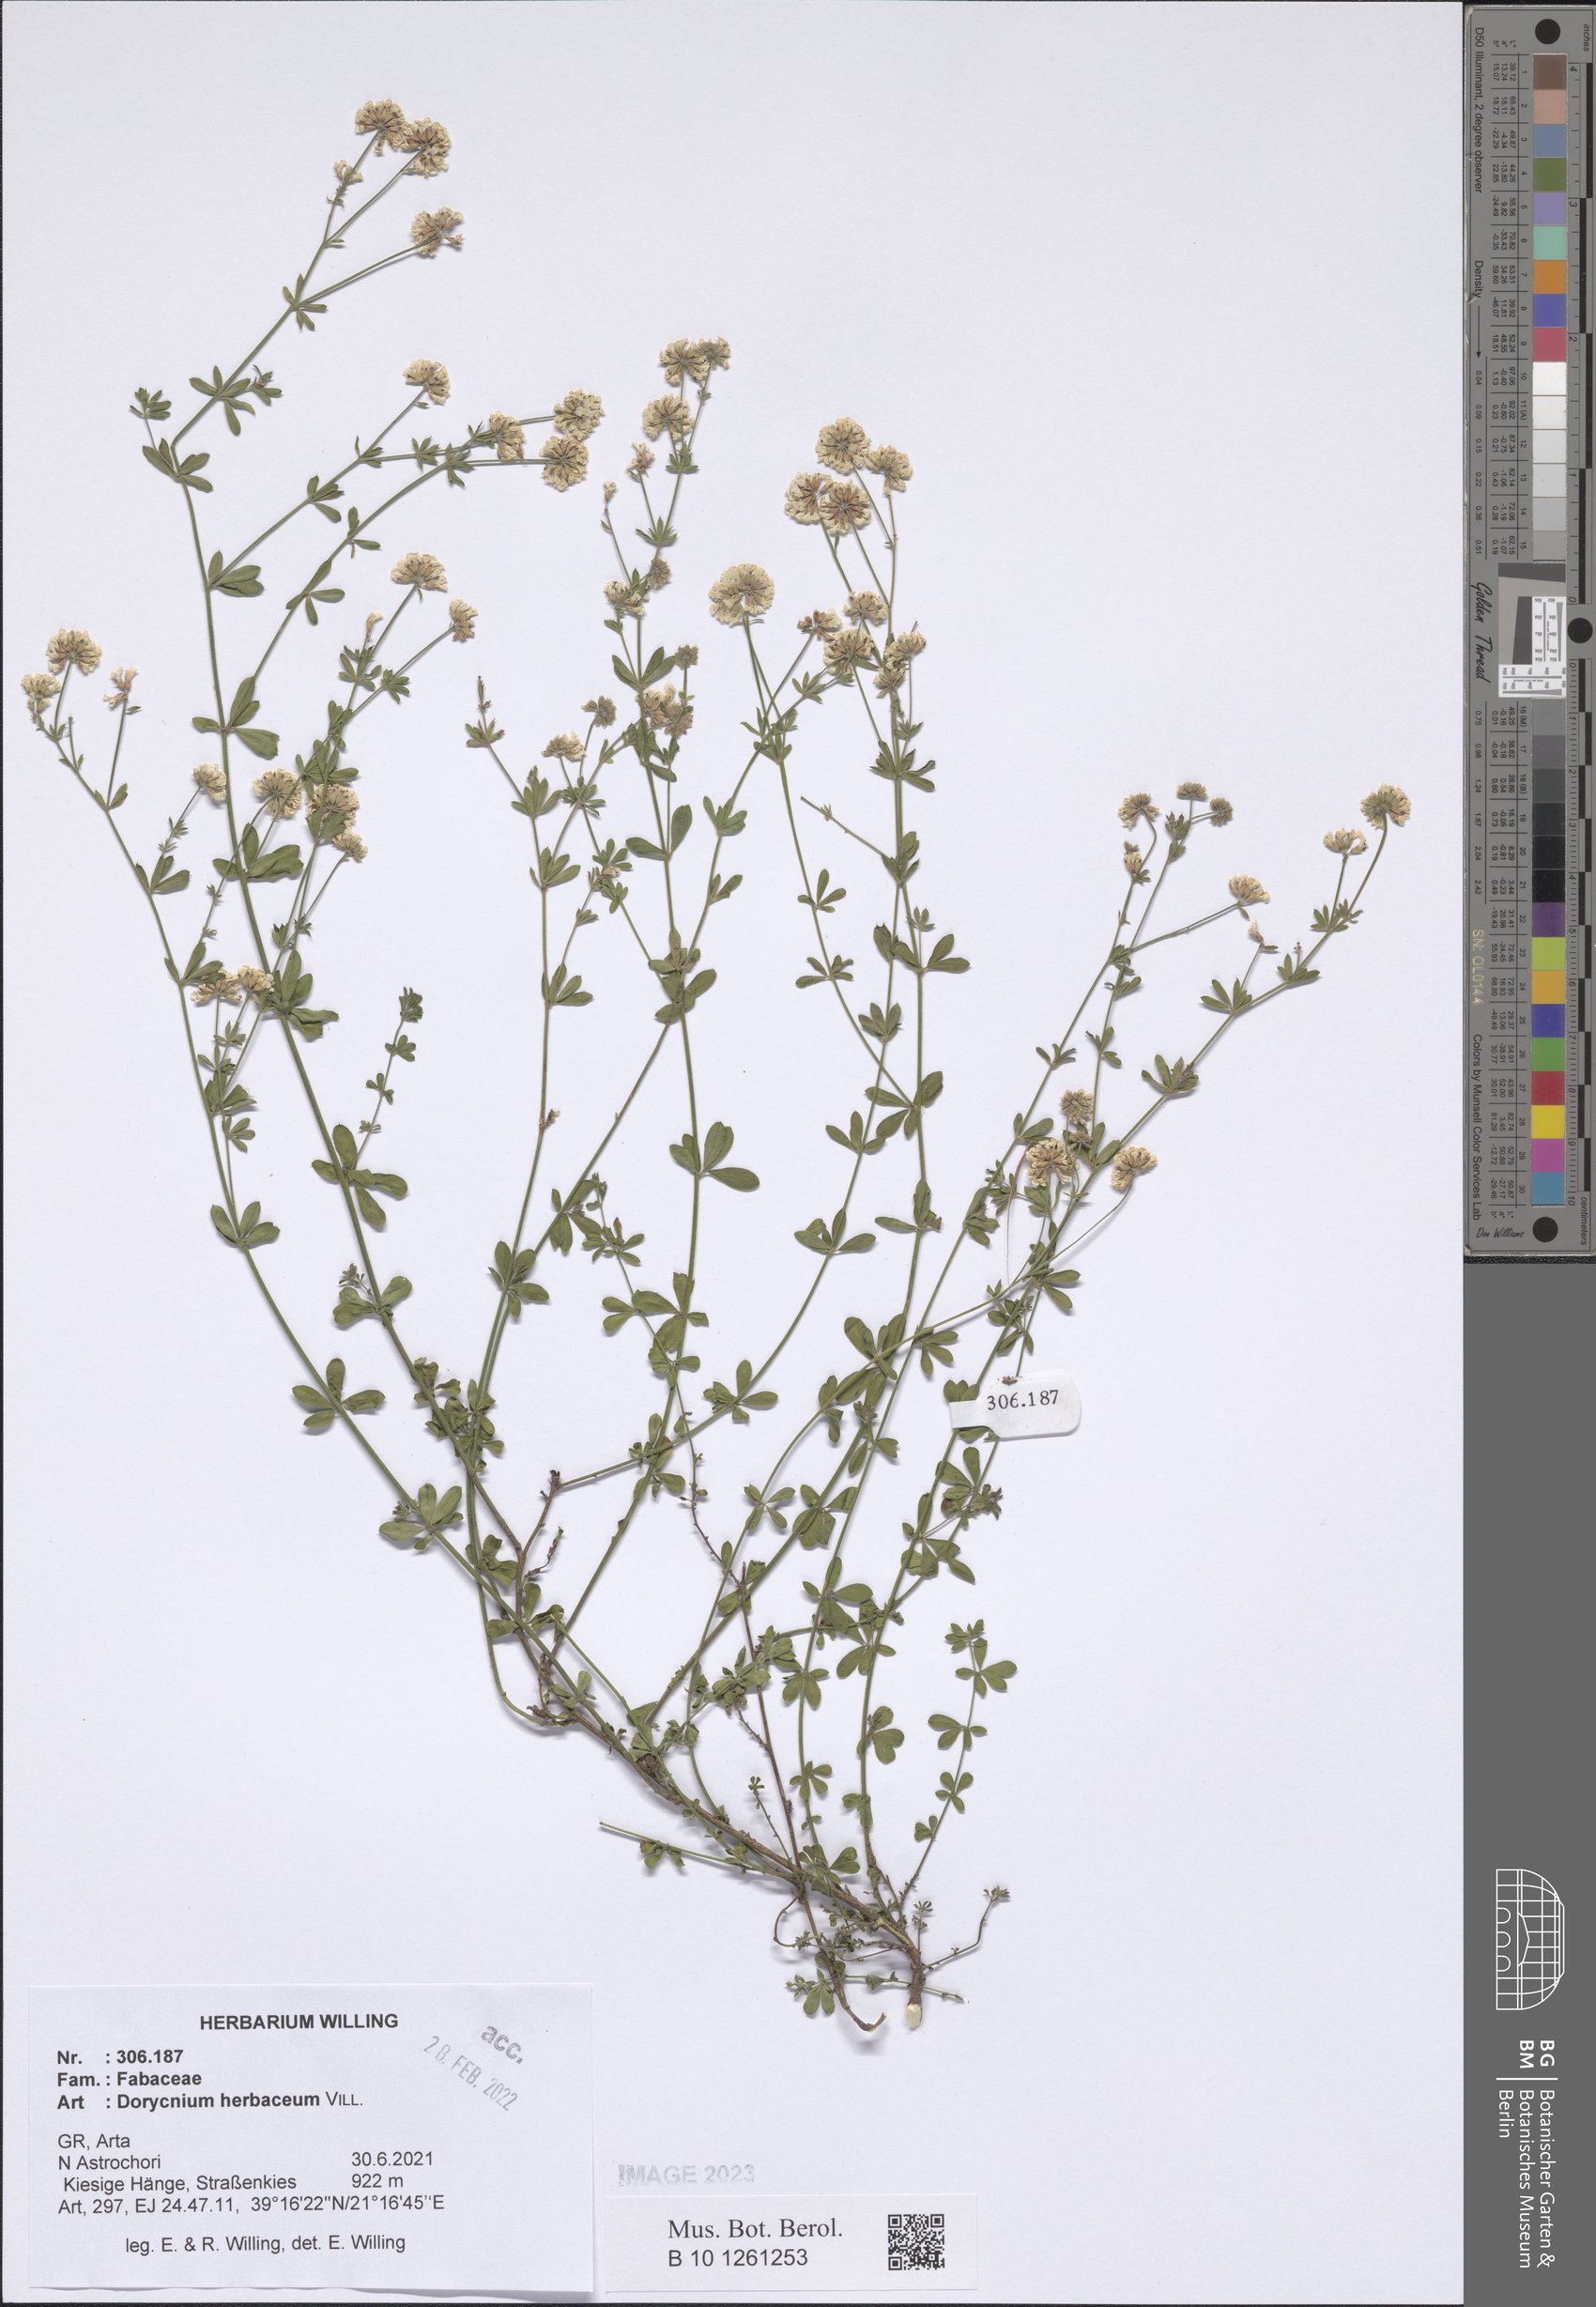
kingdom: Plantae
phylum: Tracheophyta
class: Magnoliopsida
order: Fabales
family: Fabaceae
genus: Lotus
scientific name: Lotus herbaceus
